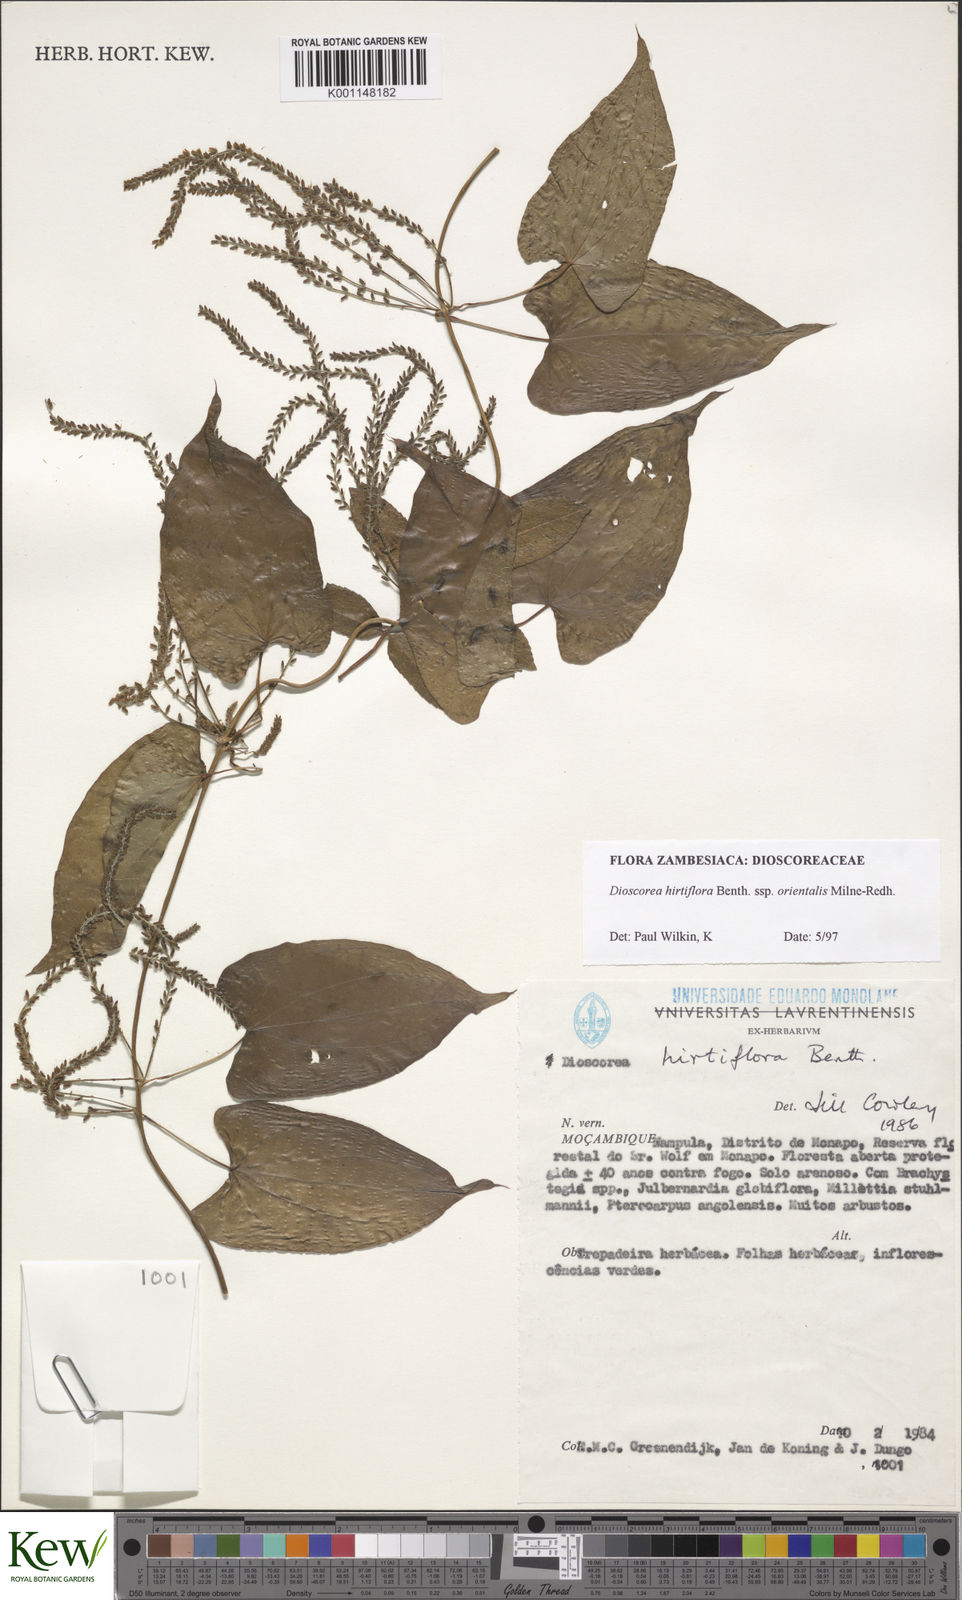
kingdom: Plantae
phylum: Tracheophyta
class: Liliopsida
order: Dioscoreales
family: Dioscoreaceae
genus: Dioscorea
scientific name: Dioscorea hirtiflora
